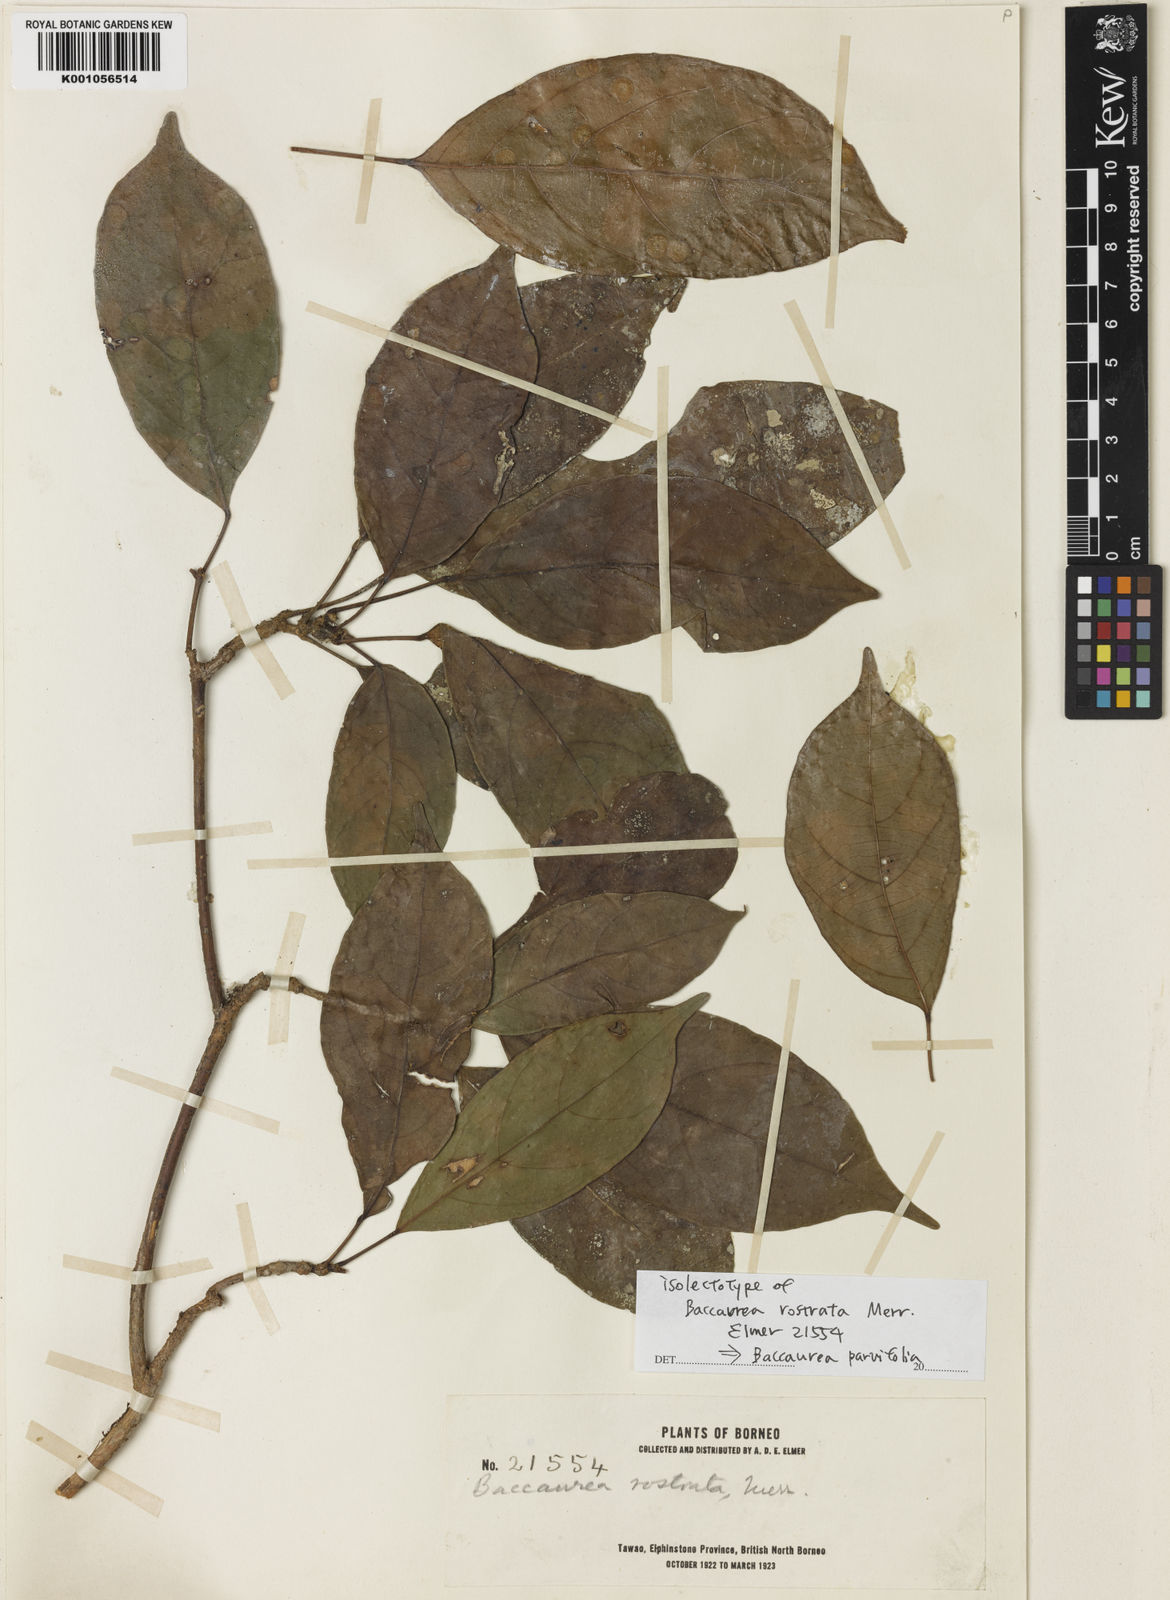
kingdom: Plantae
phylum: Tracheophyta
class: Magnoliopsida
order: Malpighiales
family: Phyllanthaceae
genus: Baccaurea
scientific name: Baccaurea
